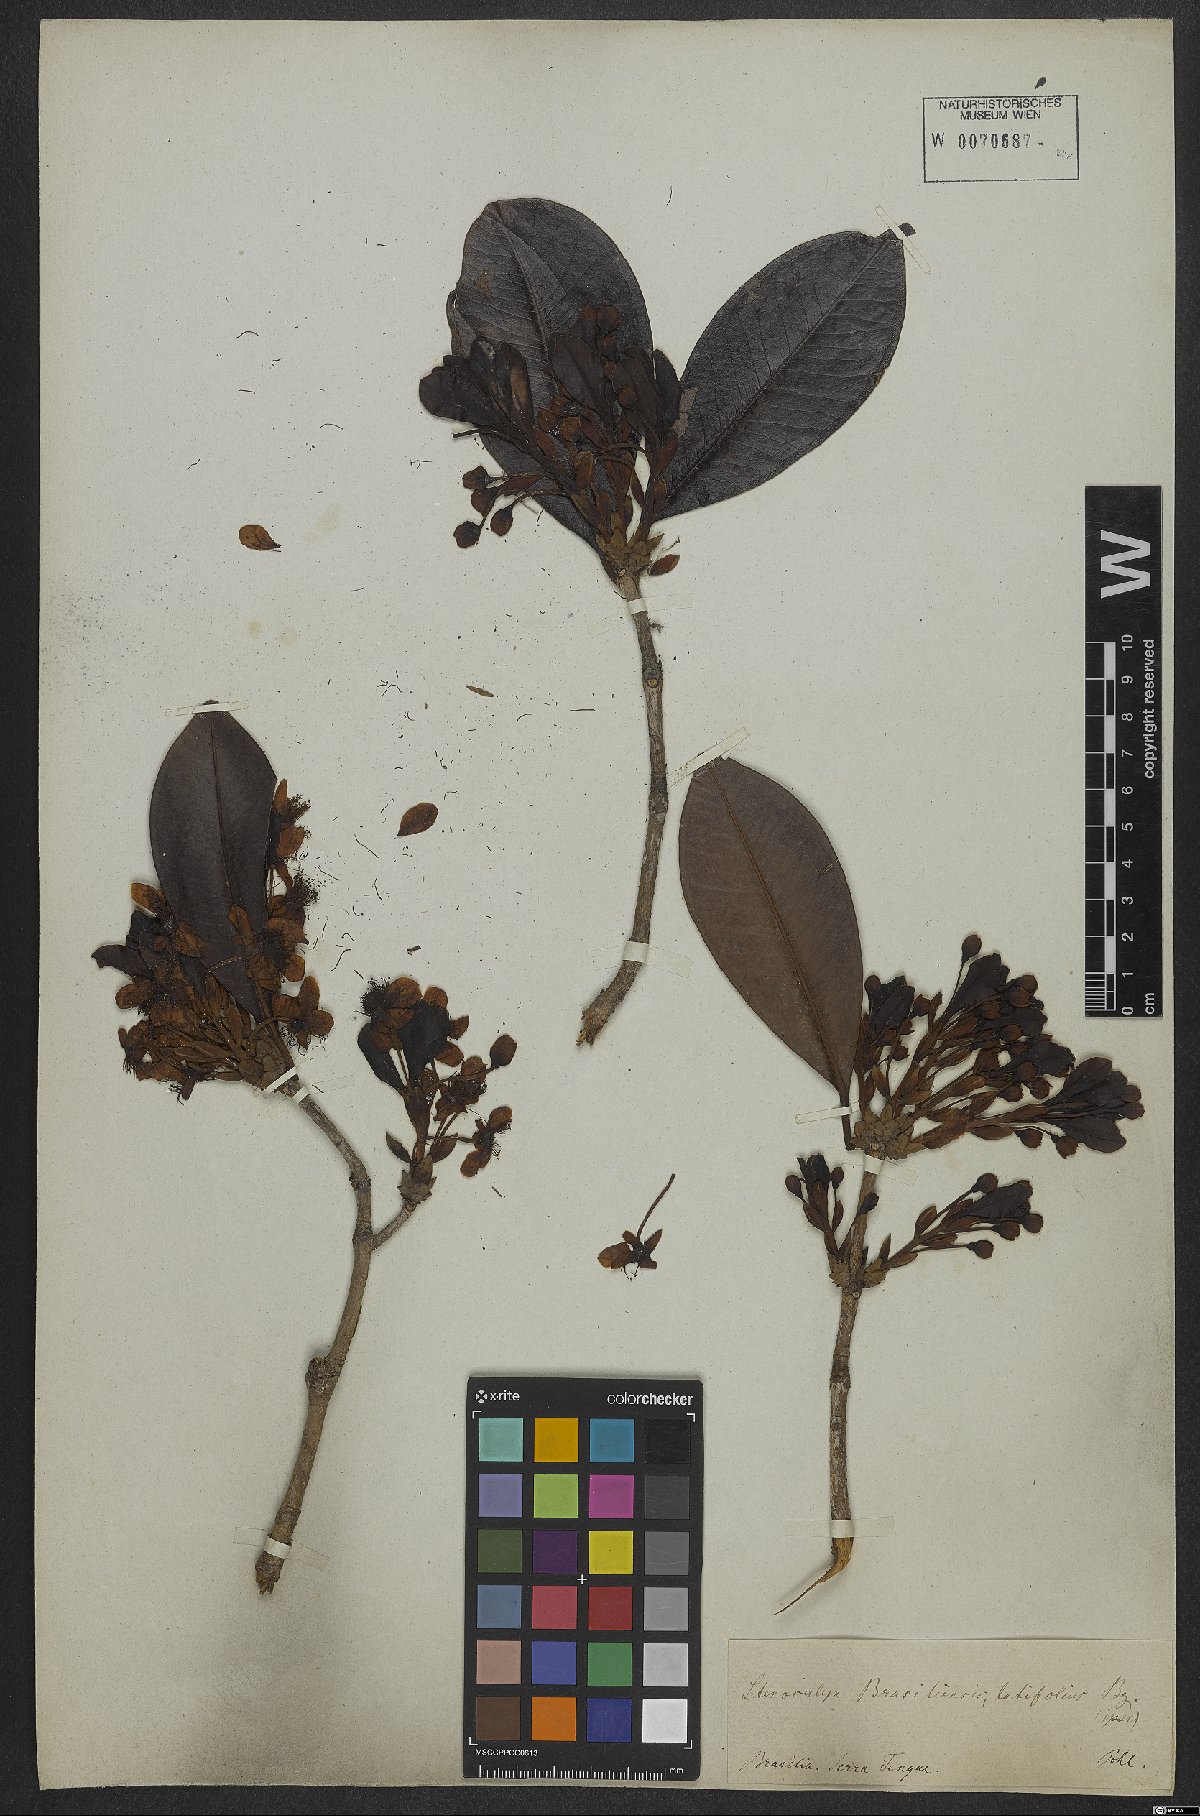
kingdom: Plantae
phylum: Tracheophyta
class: Magnoliopsida
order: Myrtales
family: Myrtaceae
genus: Eugenia
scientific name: Eugenia brasiliensis
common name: Grumichama
